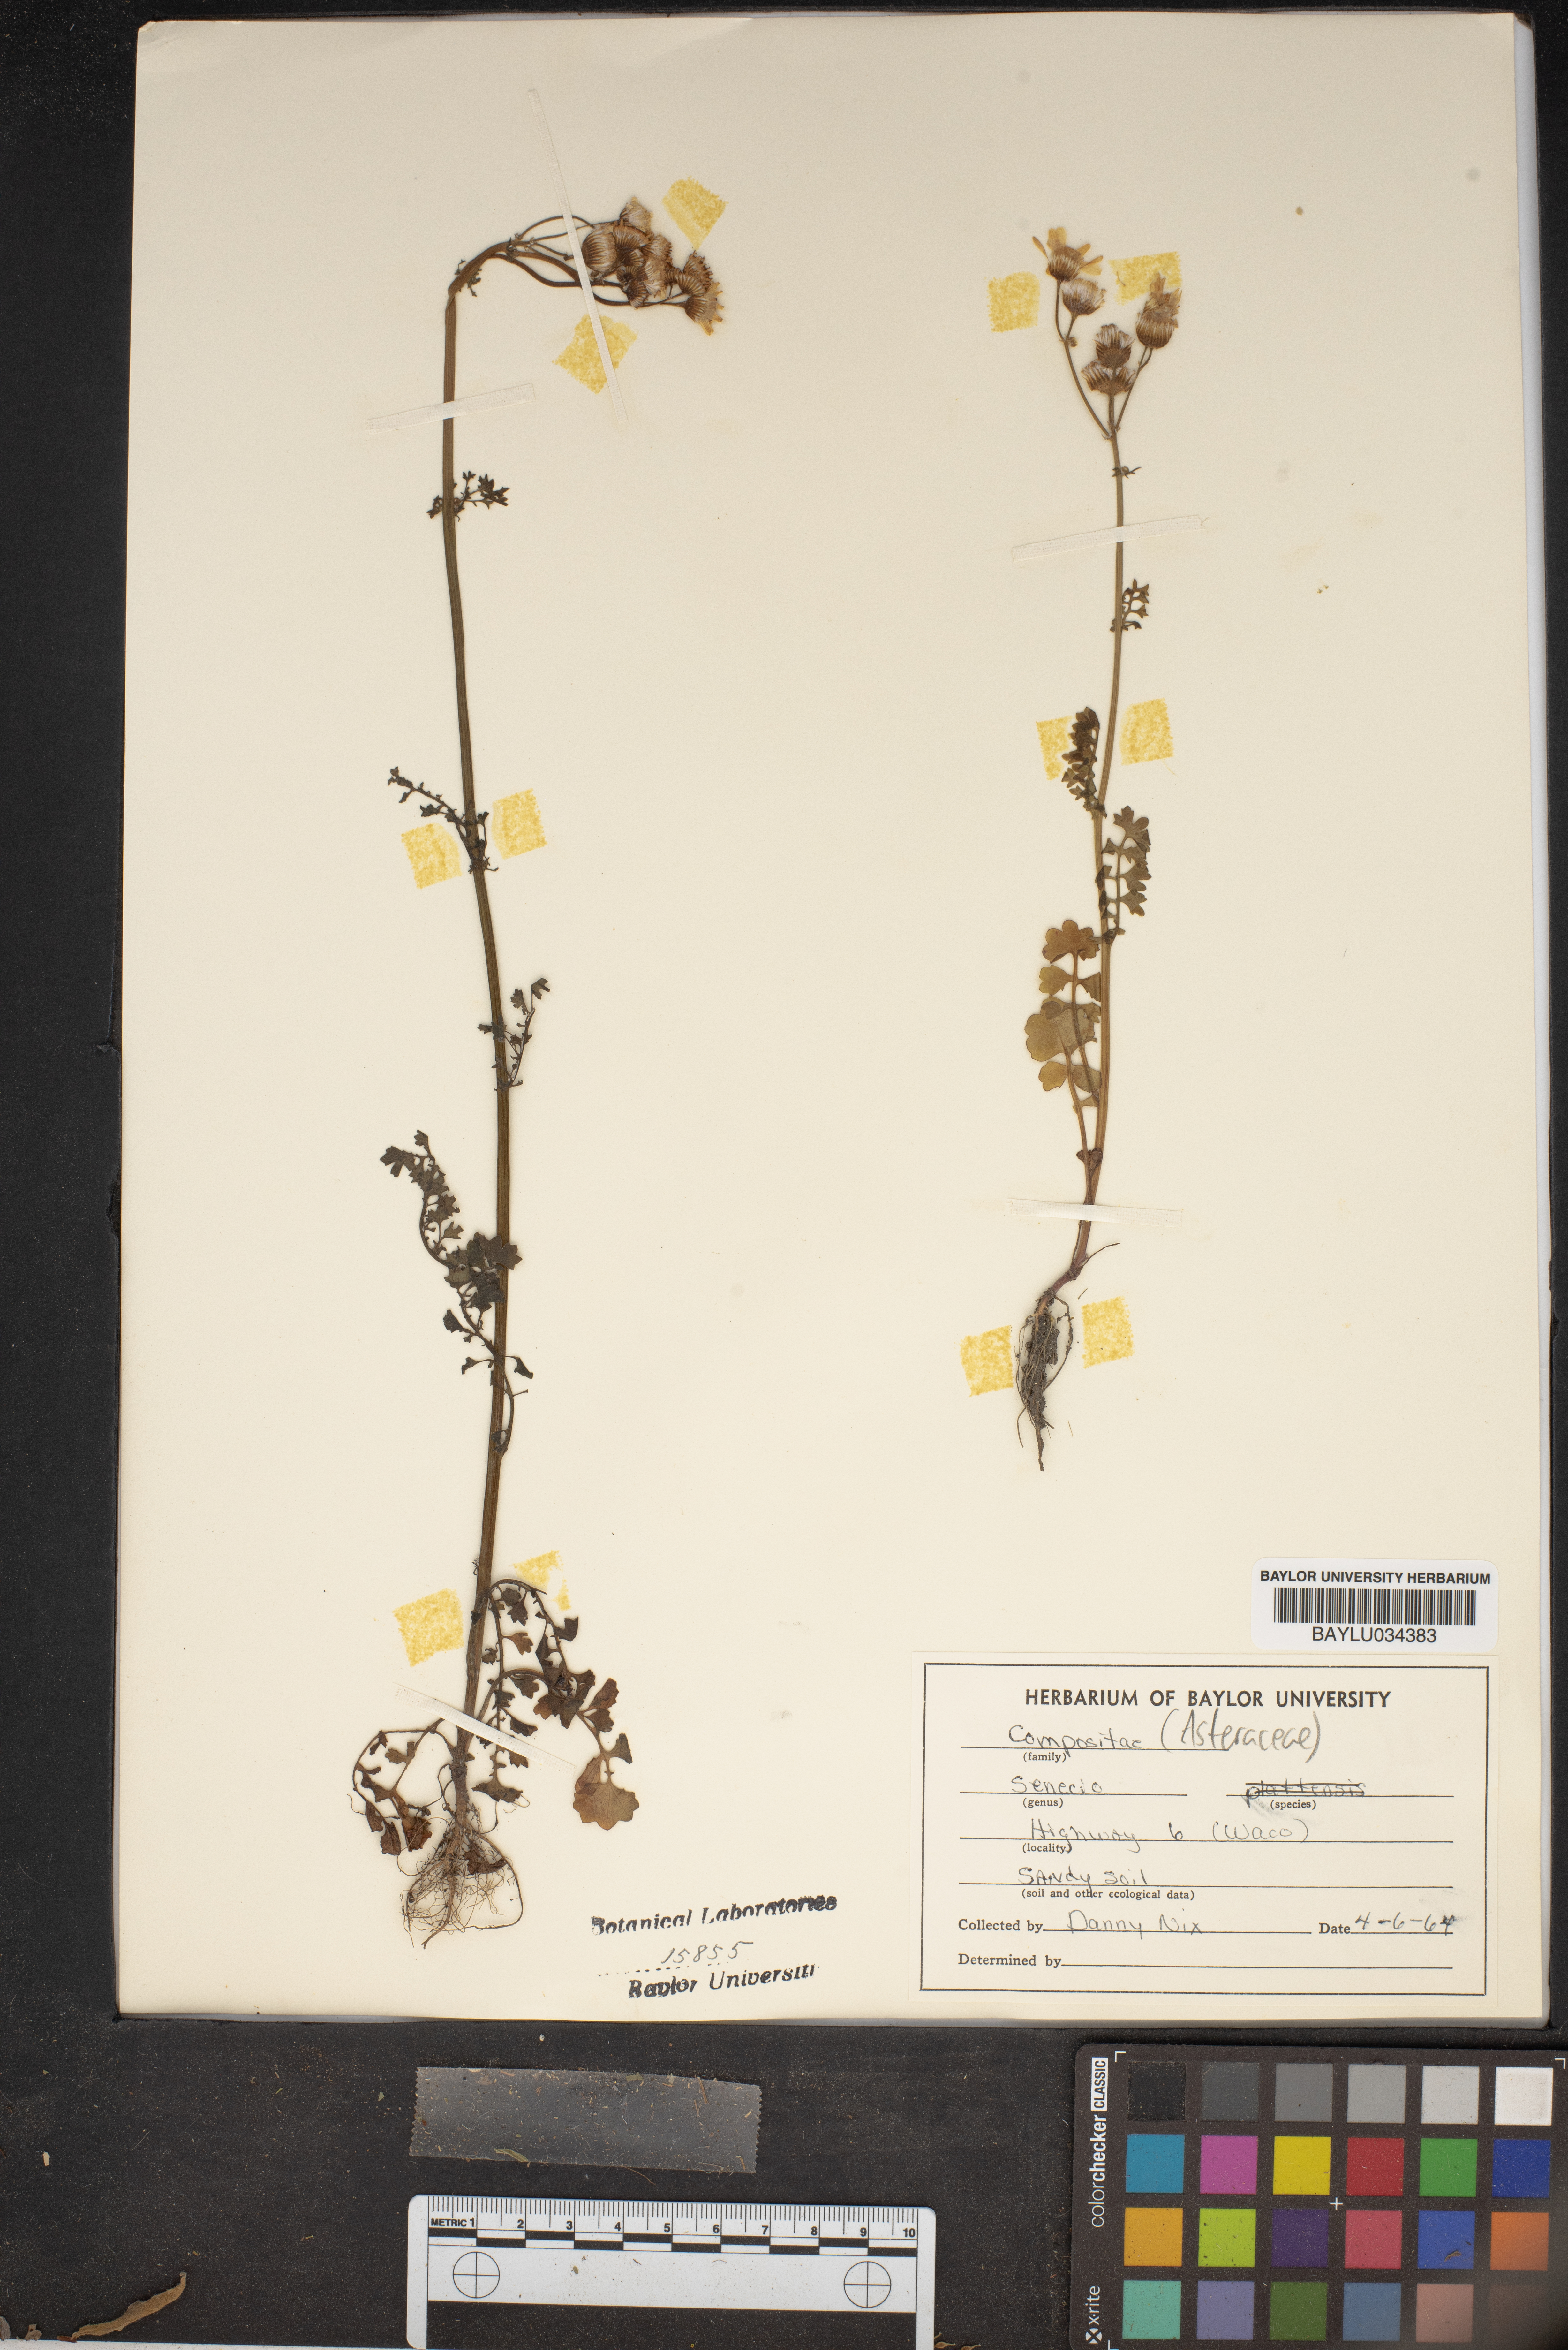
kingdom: Plantae
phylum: Tracheophyta
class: Magnoliopsida
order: Asterales
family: Asteraceae
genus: Senecio
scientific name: Senecio
